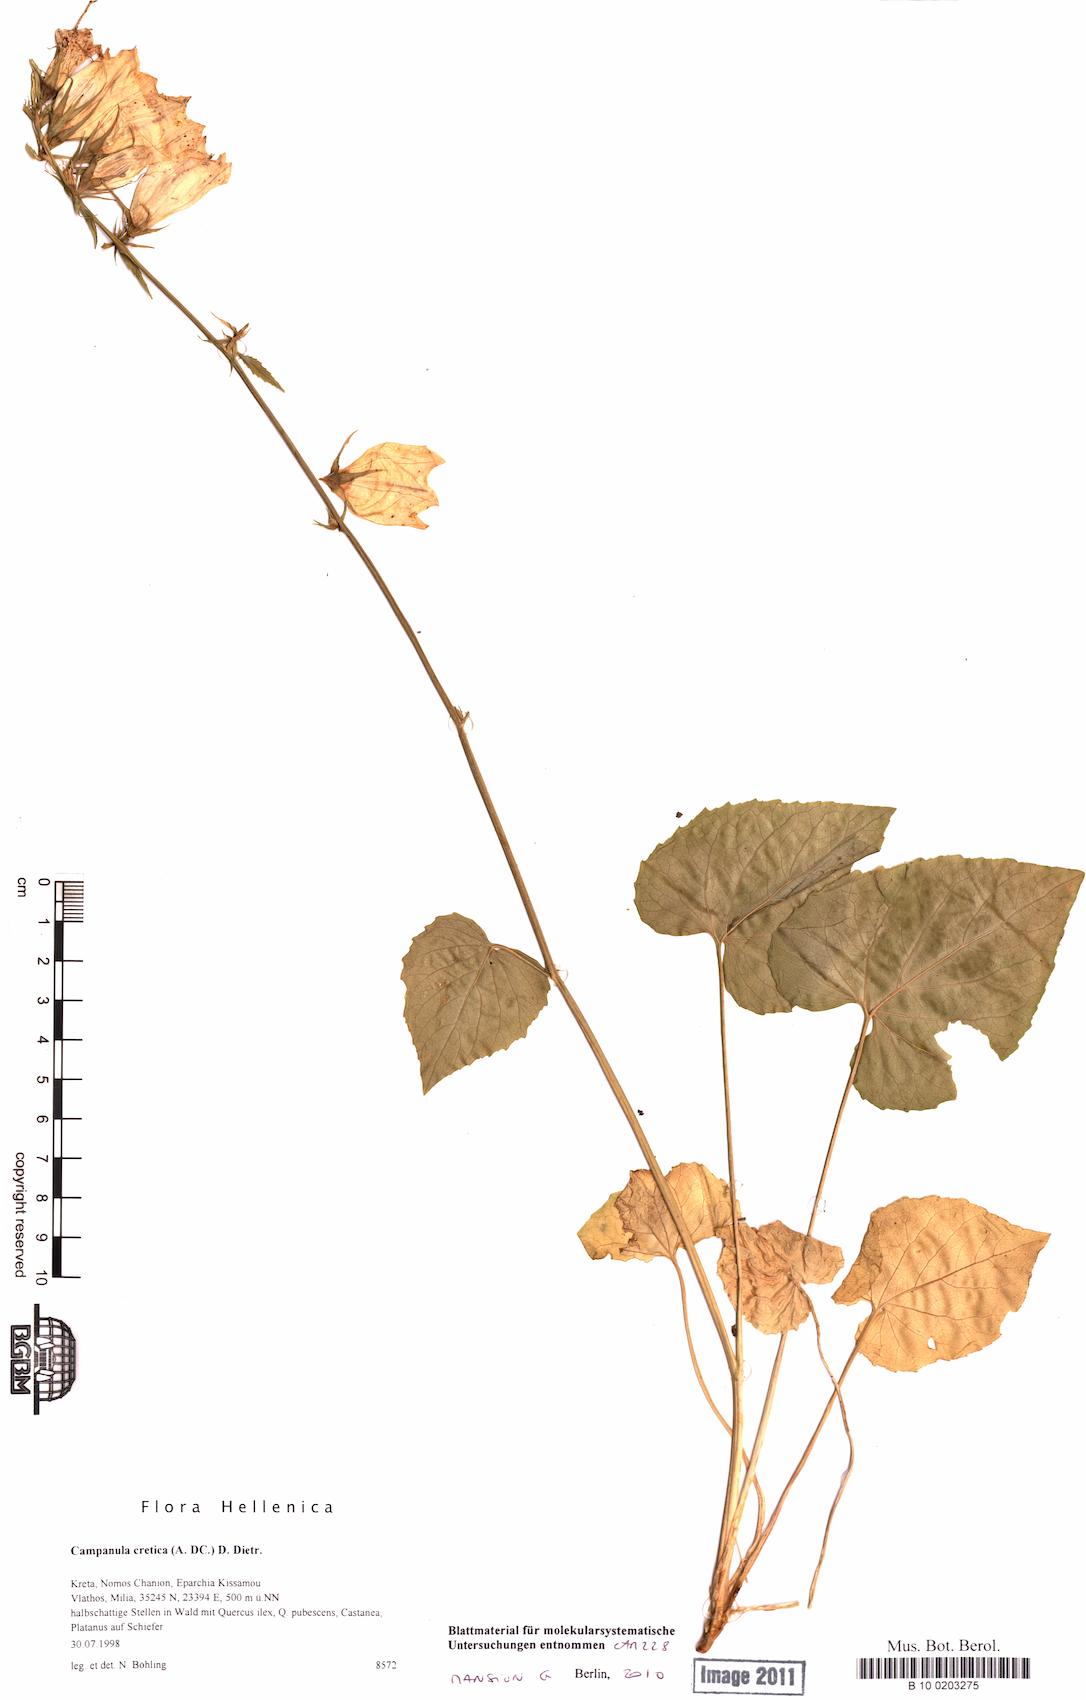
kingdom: Plantae
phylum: Tracheophyta
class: Magnoliopsida
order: Asterales
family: Campanulaceae
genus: Campanula
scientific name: Campanula cretica
